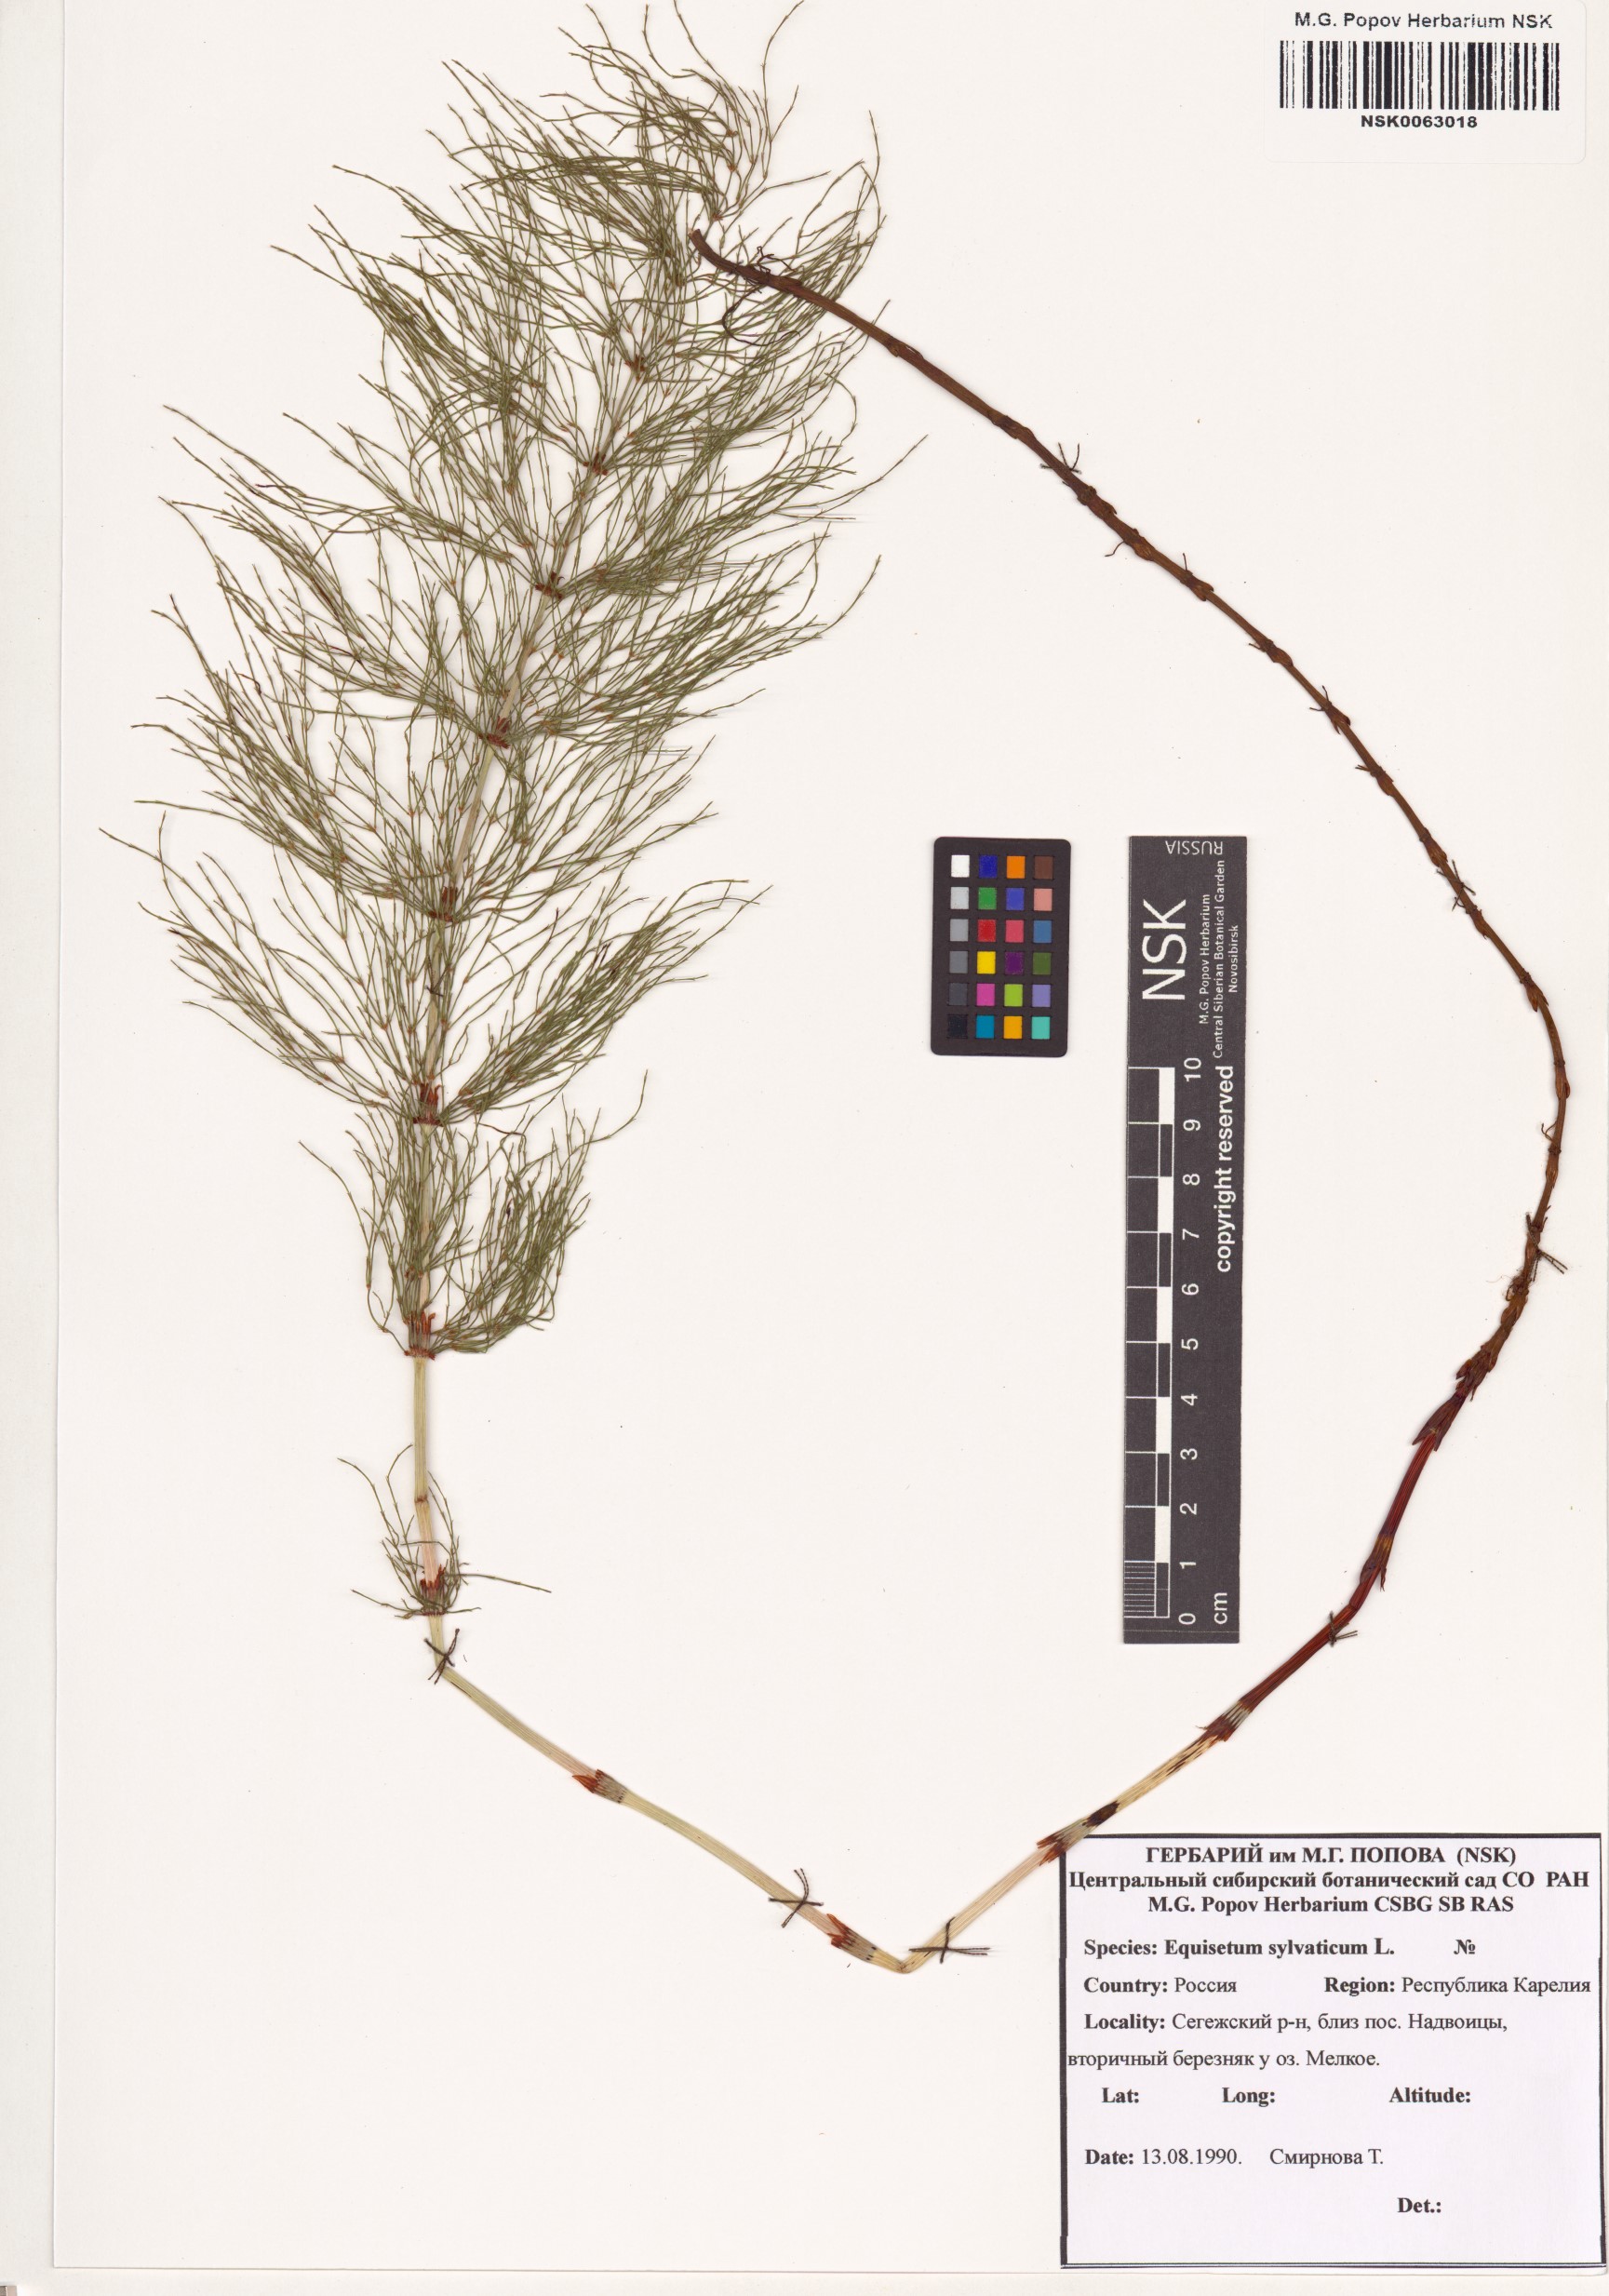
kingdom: Plantae
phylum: Tracheophyta
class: Polypodiopsida
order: Equisetales
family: Equisetaceae
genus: Equisetum
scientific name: Equisetum sylvaticum
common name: Wood horsetail
